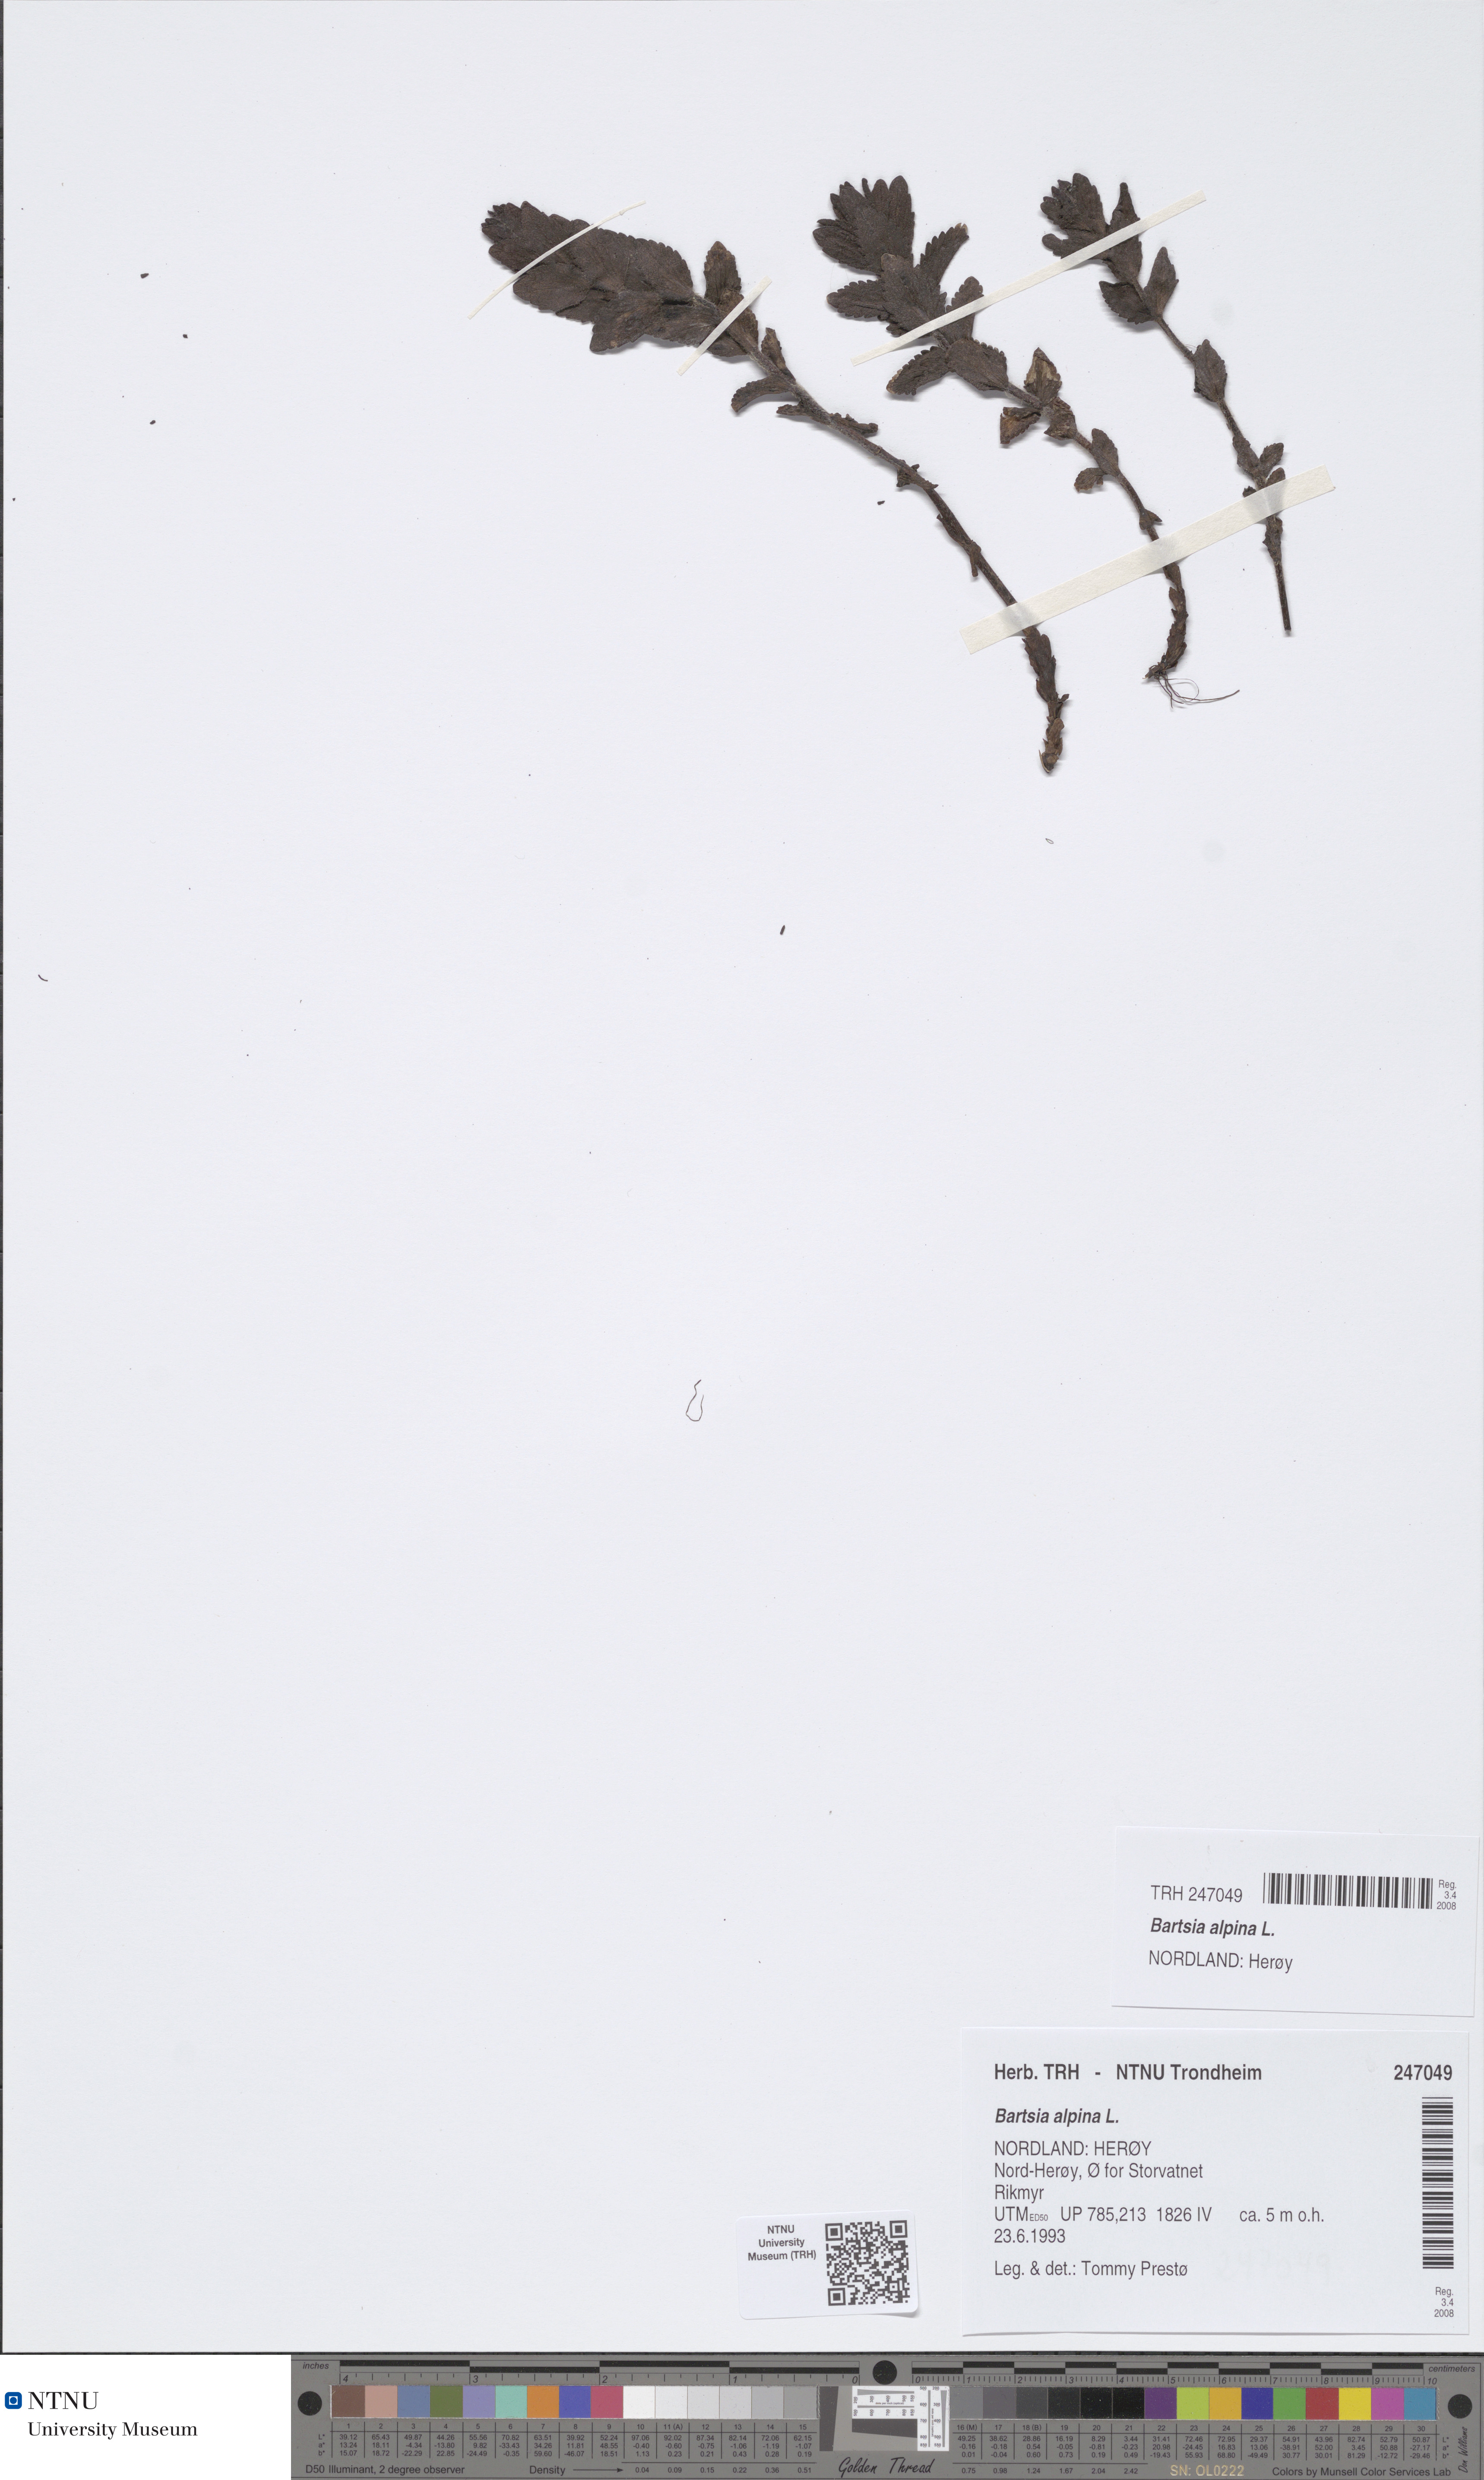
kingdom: Plantae
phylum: Tracheophyta
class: Magnoliopsida
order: Lamiales
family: Orobanchaceae
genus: Bartsia
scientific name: Bartsia alpina
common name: Alpine bartsia
